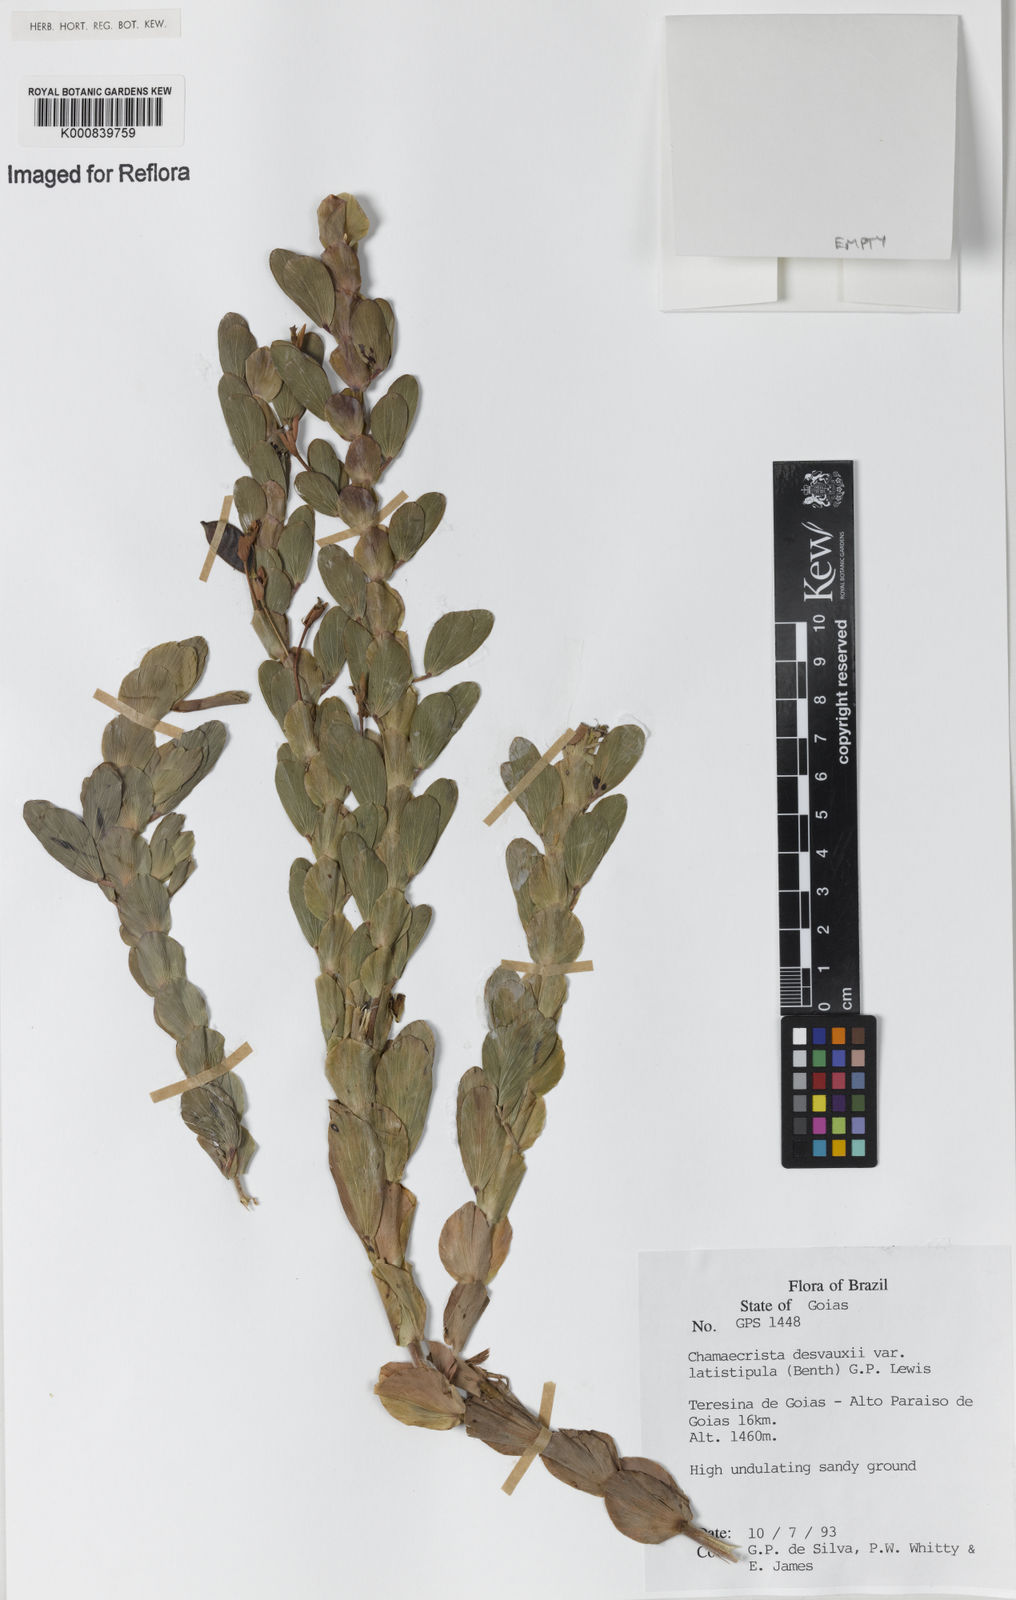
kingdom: Plantae
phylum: Tracheophyta
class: Magnoliopsida
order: Fabales
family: Fabaceae
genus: Chamaecrista
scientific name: Chamaecrista desvauxii
